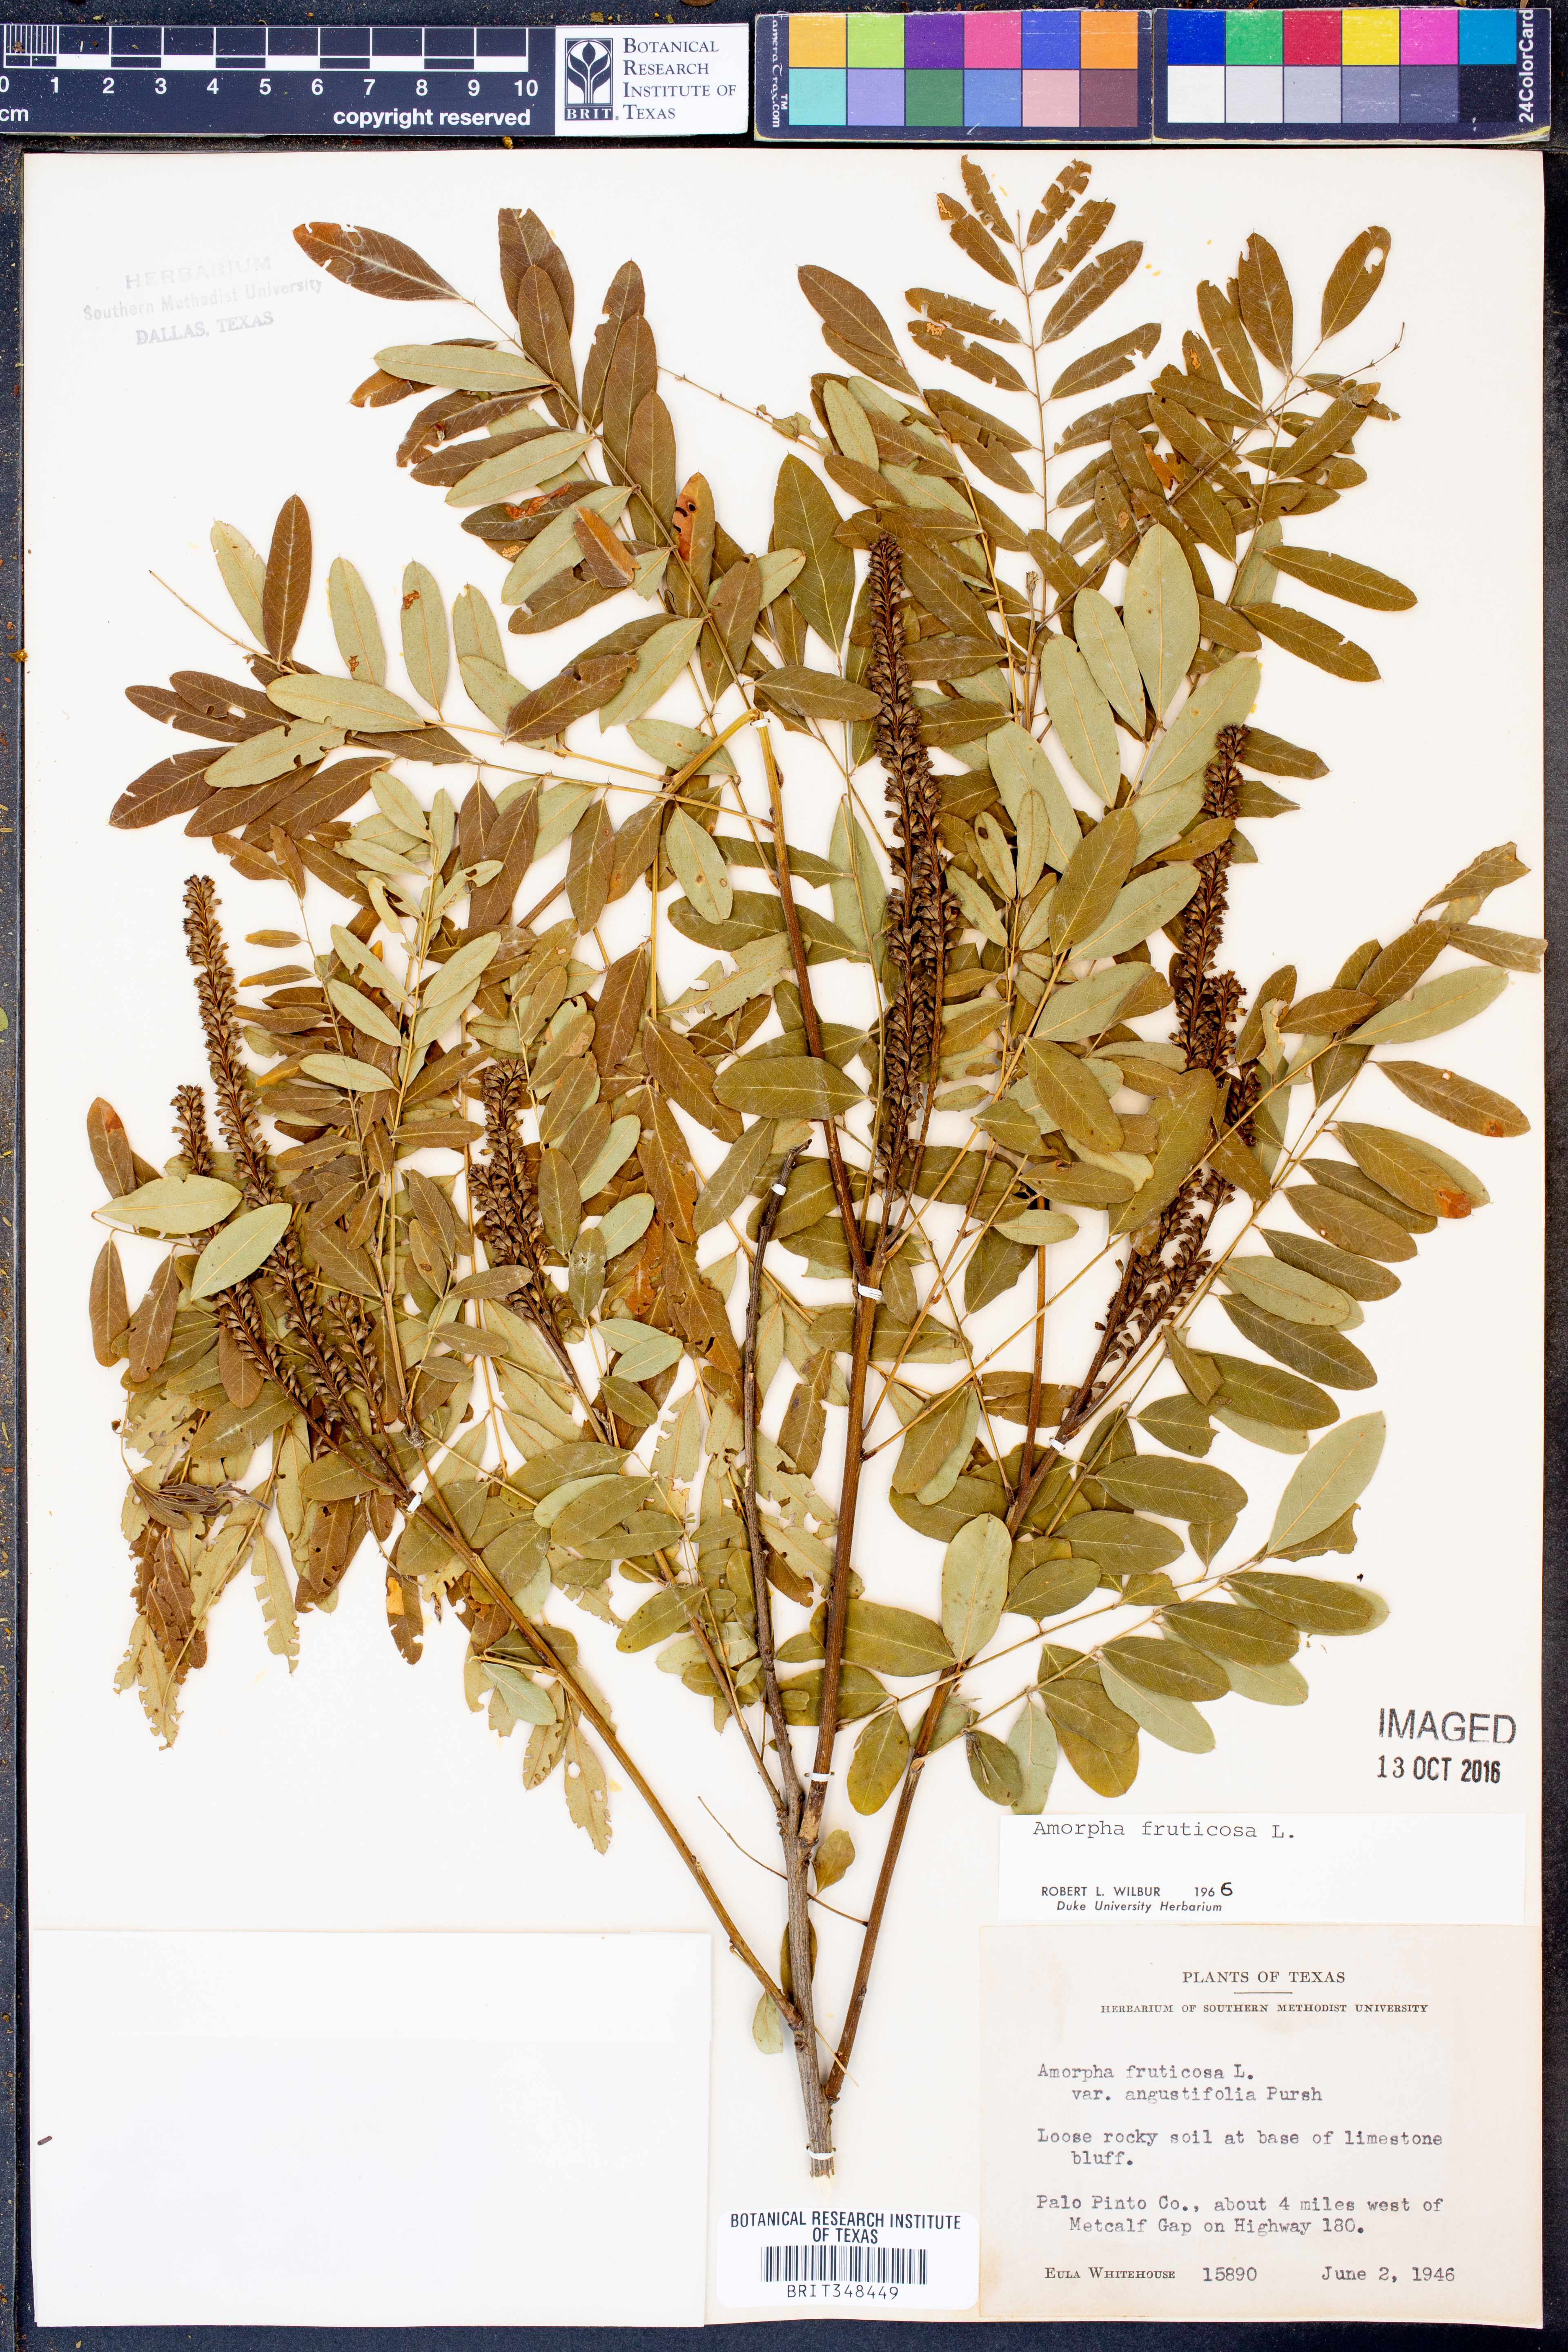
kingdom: Plantae
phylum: Tracheophyta
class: Magnoliopsida
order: Fabales
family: Fabaceae
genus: Amorpha
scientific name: Amorpha fruticosa
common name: False indigo
